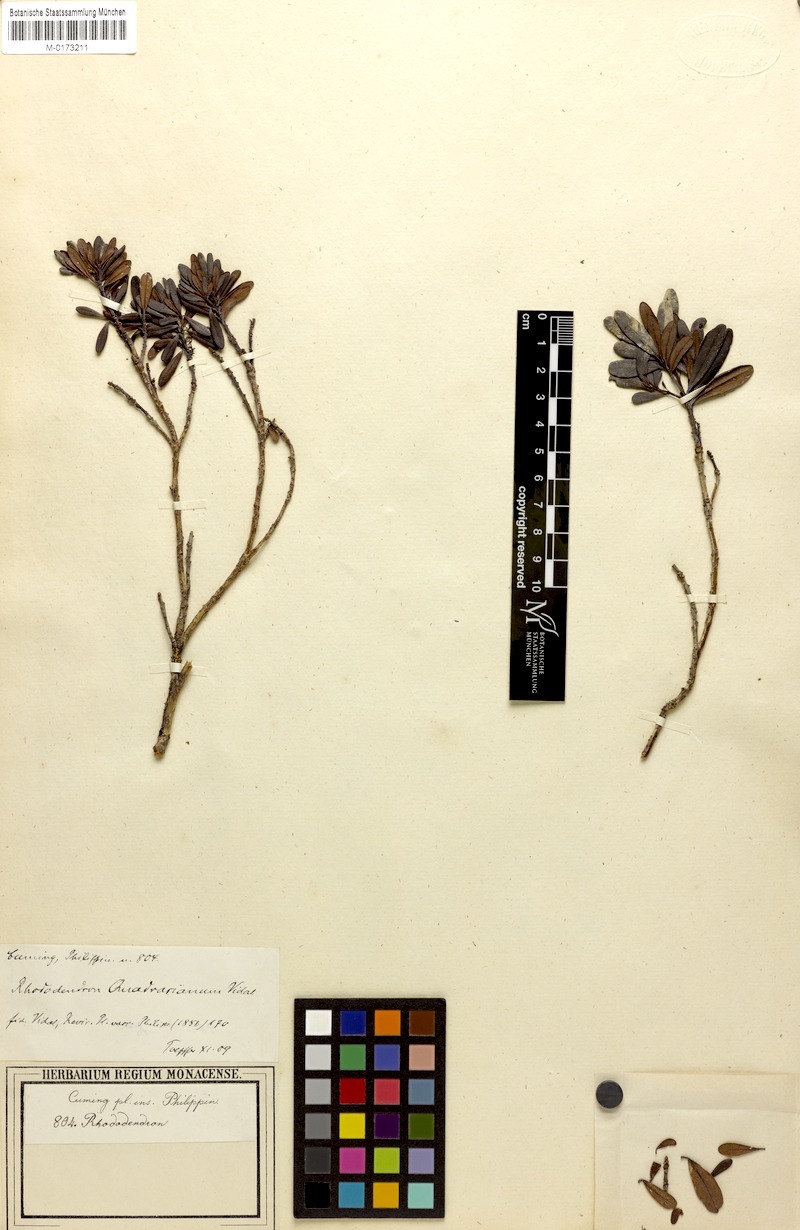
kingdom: Plantae
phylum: Tracheophyta
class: Magnoliopsida
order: Ericales
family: Ericaceae
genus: Rhododendron
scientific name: Rhododendron quadrasianum
